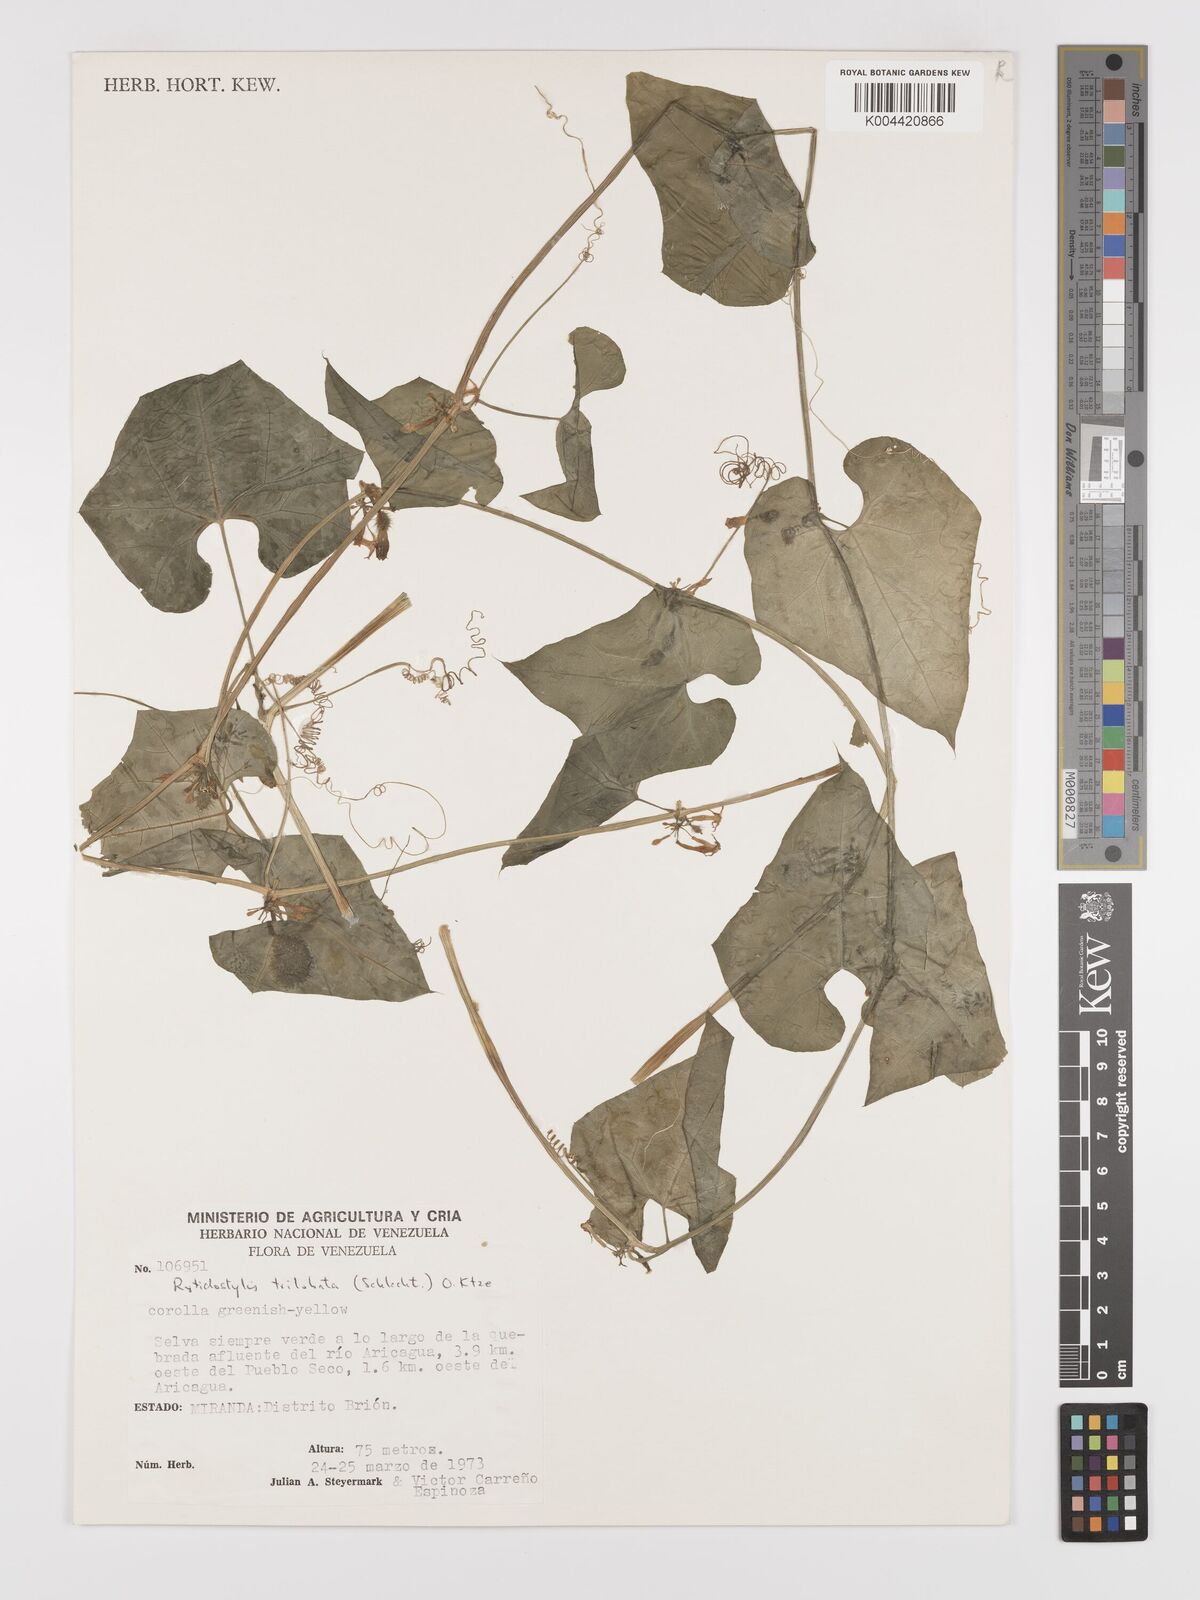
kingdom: Plantae
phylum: Tracheophyta
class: Magnoliopsida
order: Cucurbitales
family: Cucurbitaceae
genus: Cyclanthera
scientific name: Cyclanthera carthagenensis
